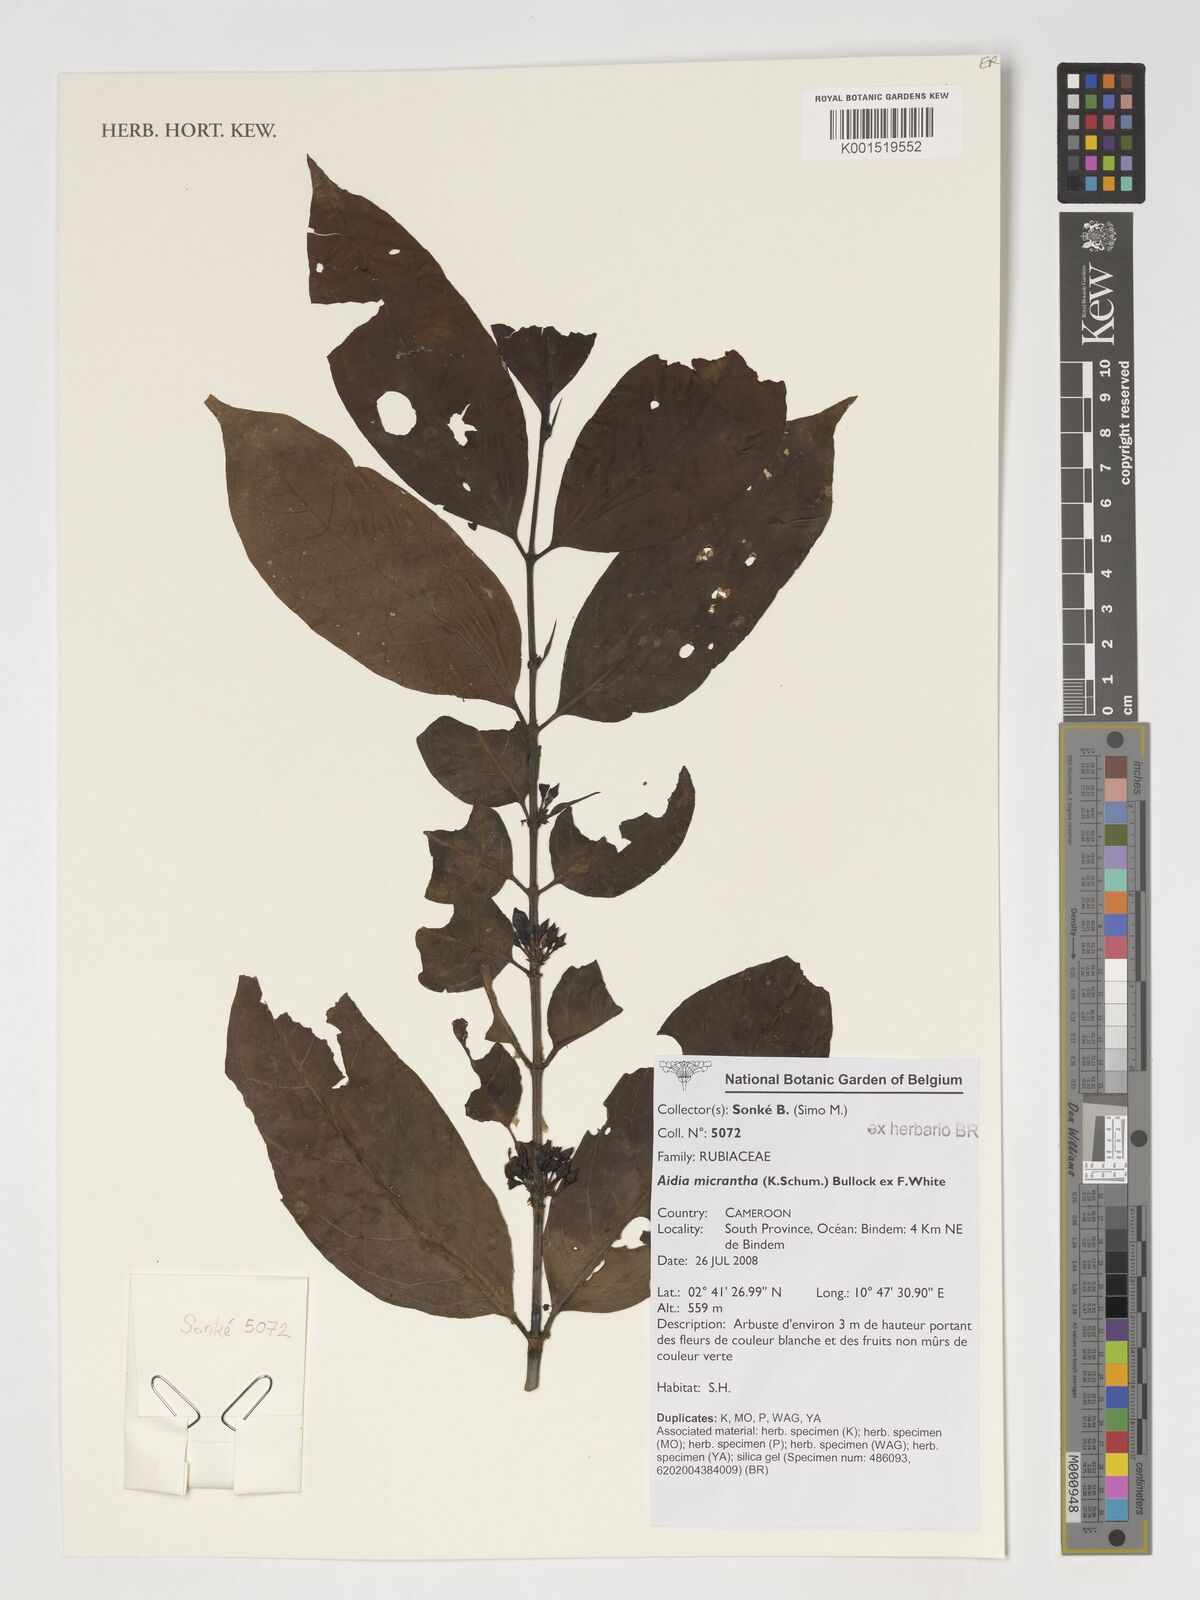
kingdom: Plantae
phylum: Tracheophyta
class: Magnoliopsida
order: Gentianales
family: Rubiaceae
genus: Aidia
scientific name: Aidia micrantha
